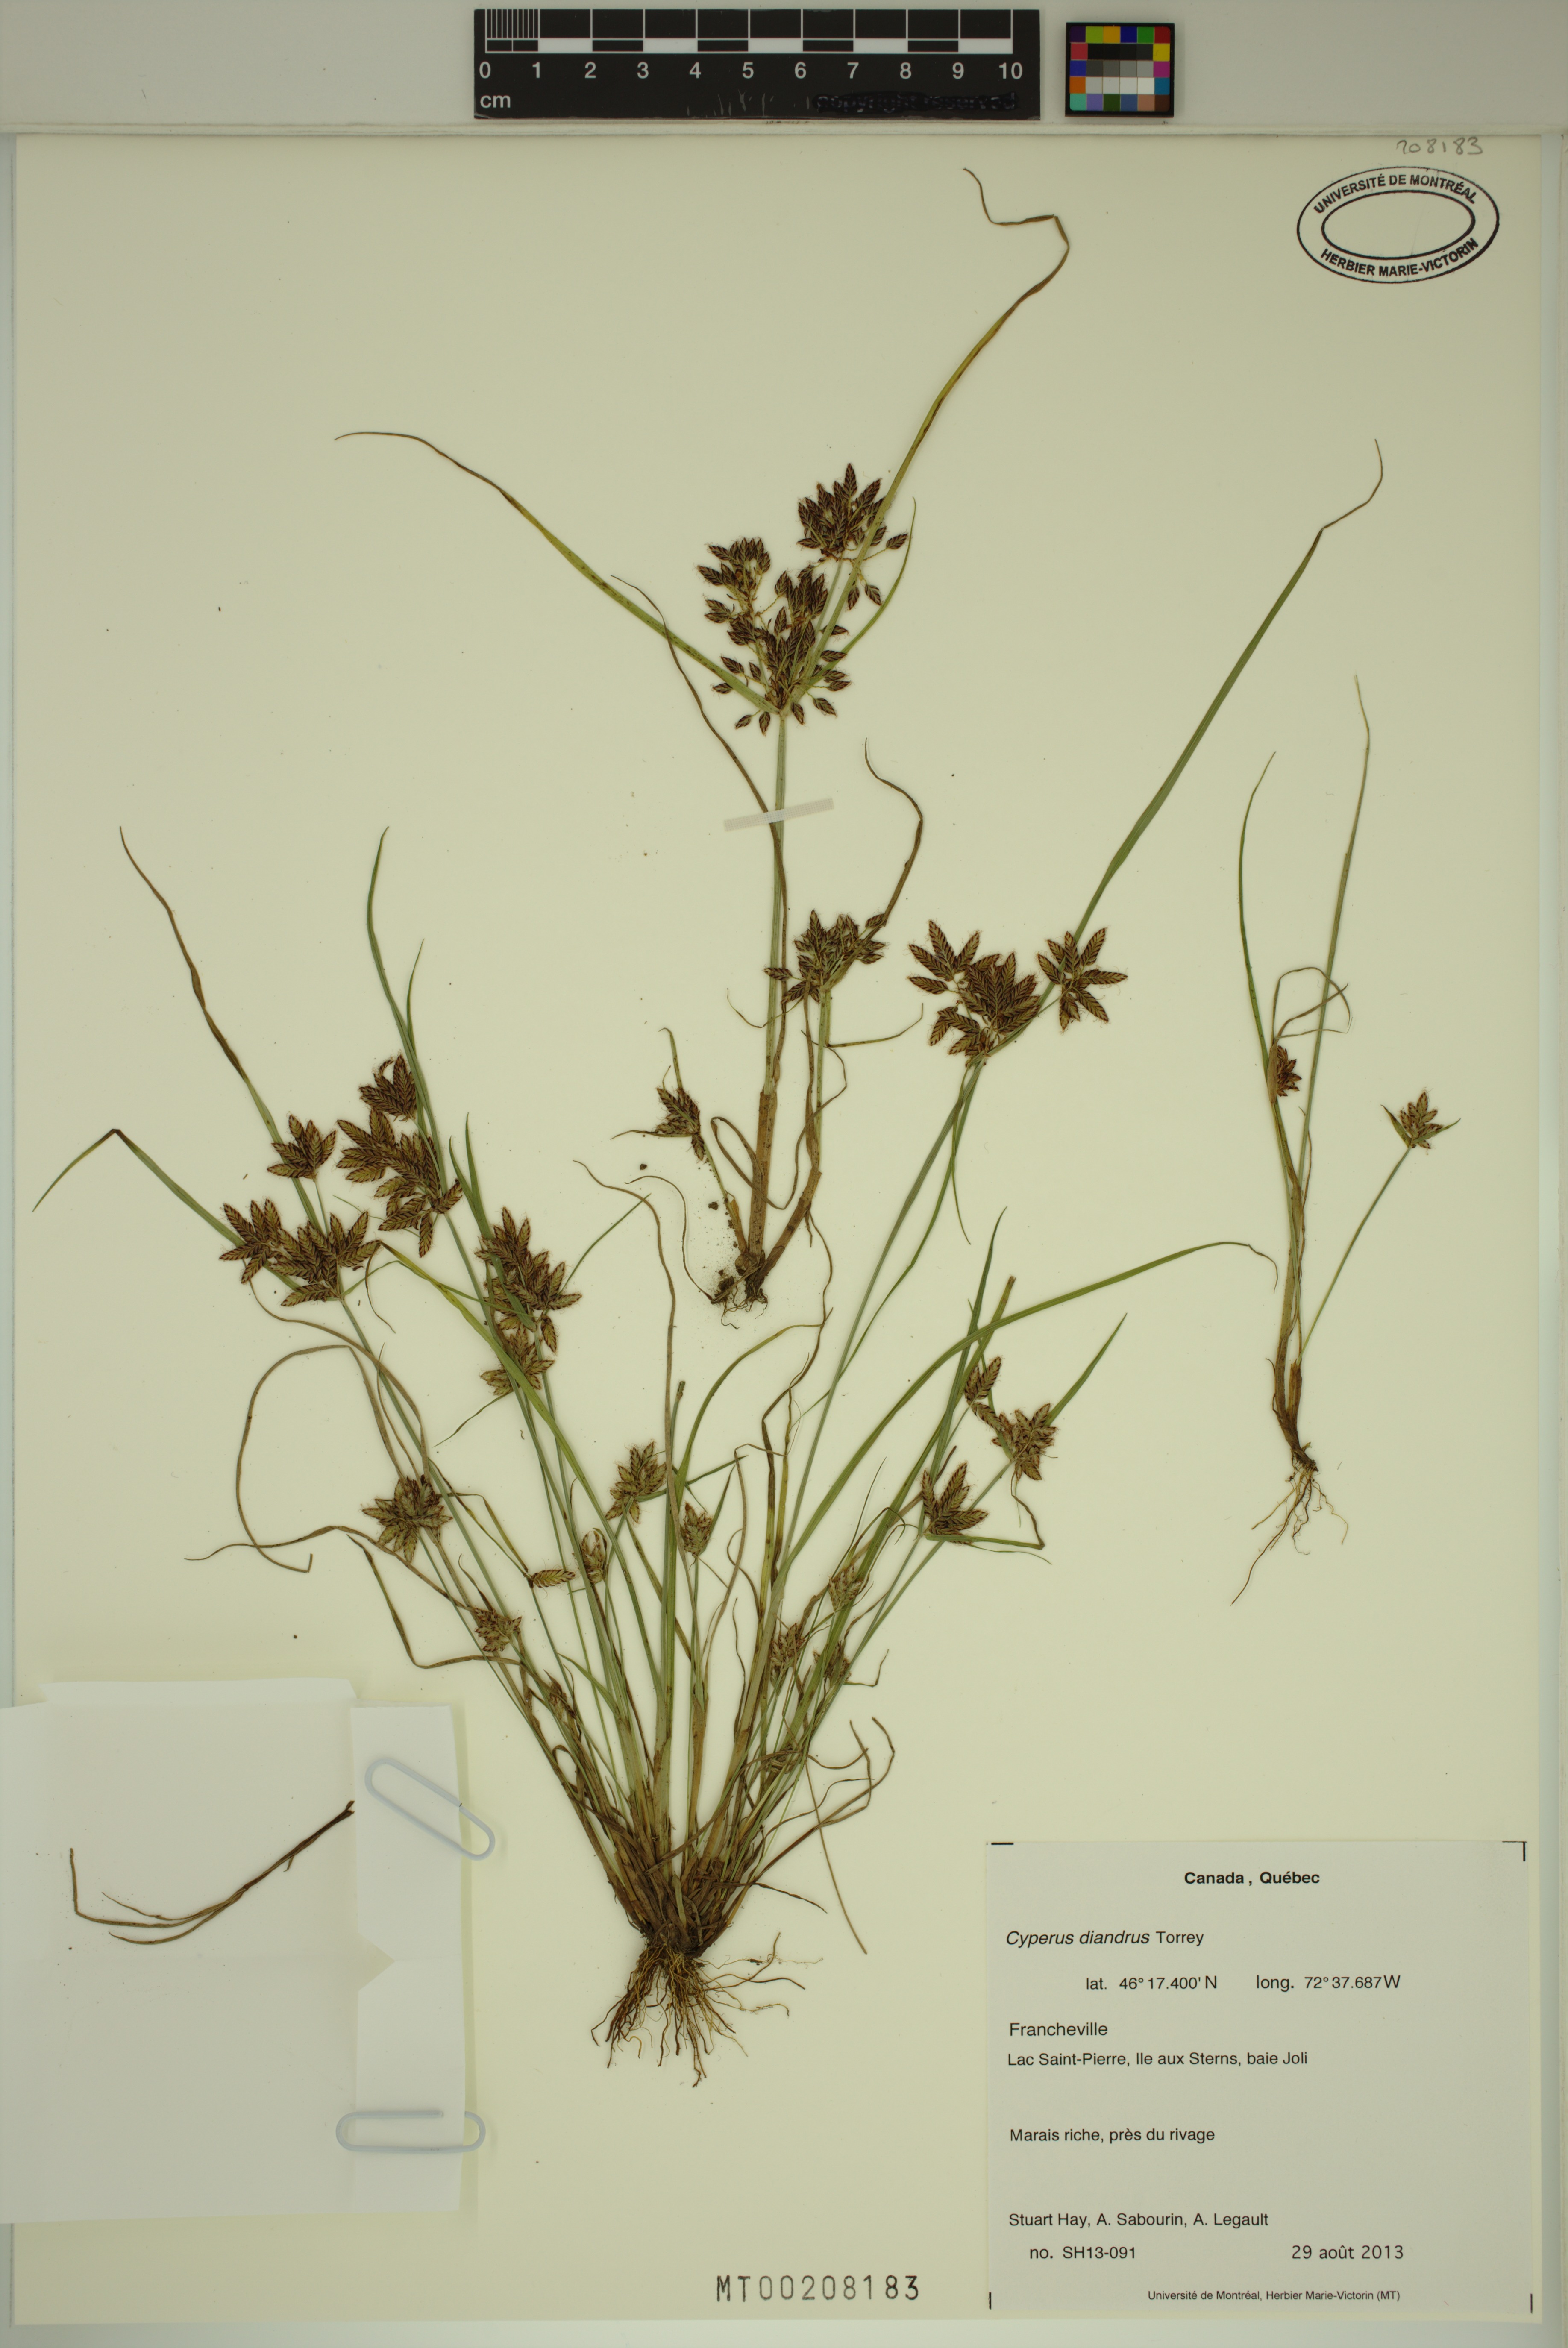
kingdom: Plantae
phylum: Tracheophyta
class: Liliopsida
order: Poales
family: Cyperaceae
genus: Cyperus
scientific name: Cyperus diandrus
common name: Low cyperus
